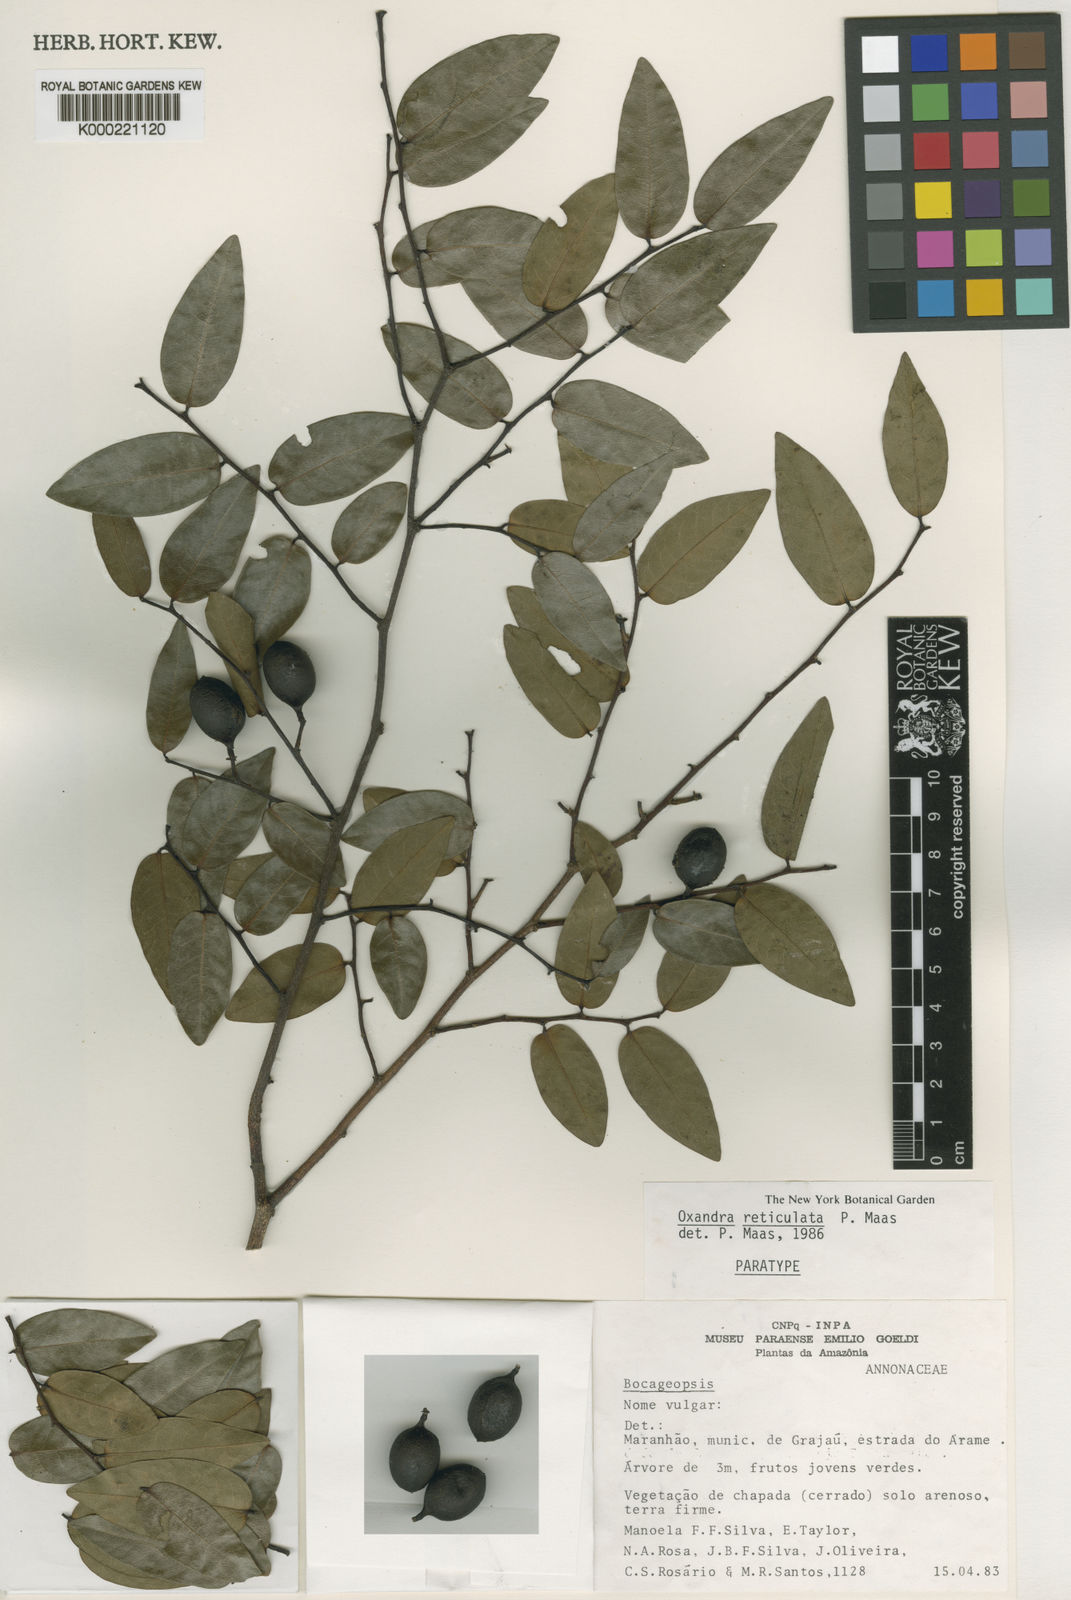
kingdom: Plantae
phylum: Tracheophyta
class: Magnoliopsida
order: Magnoliales
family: Annonaceae
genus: Oxandra
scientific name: Oxandra reticulata
